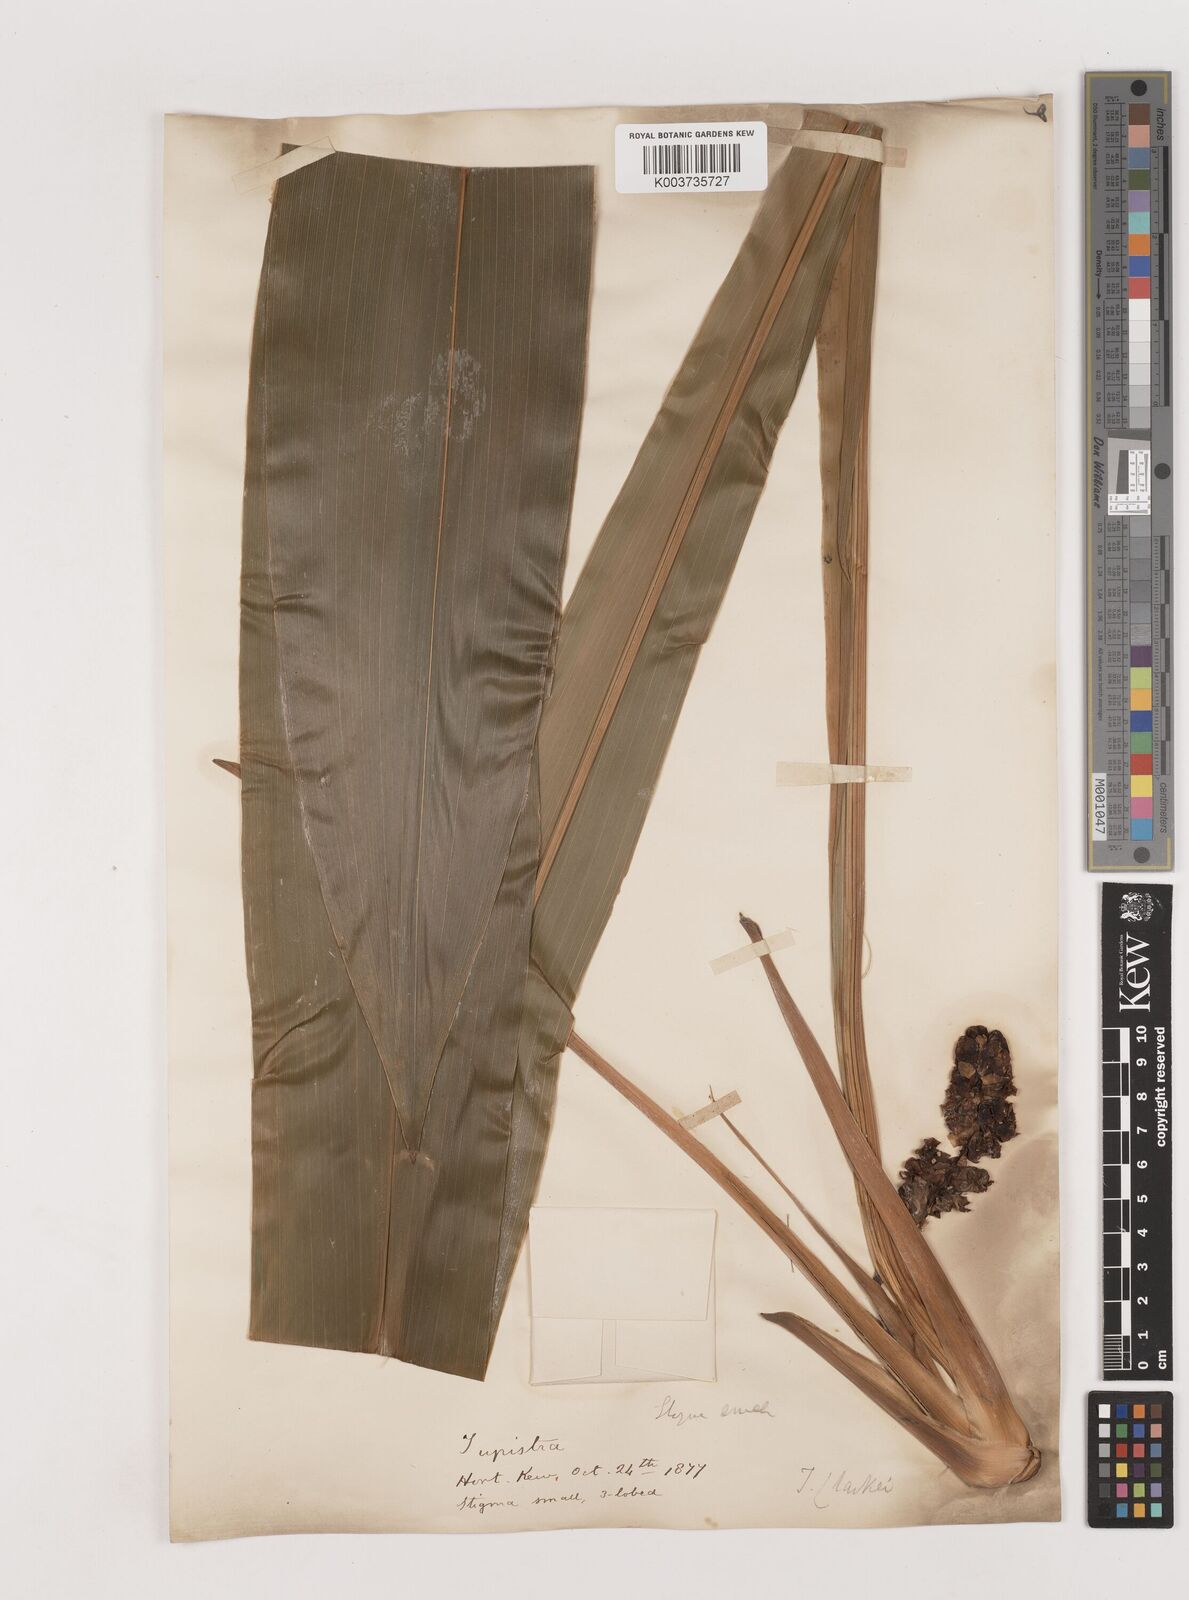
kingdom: Plantae
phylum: Tracheophyta
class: Liliopsida
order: Asparagales
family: Asparagaceae
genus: Tupistra
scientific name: Tupistra clarkei
